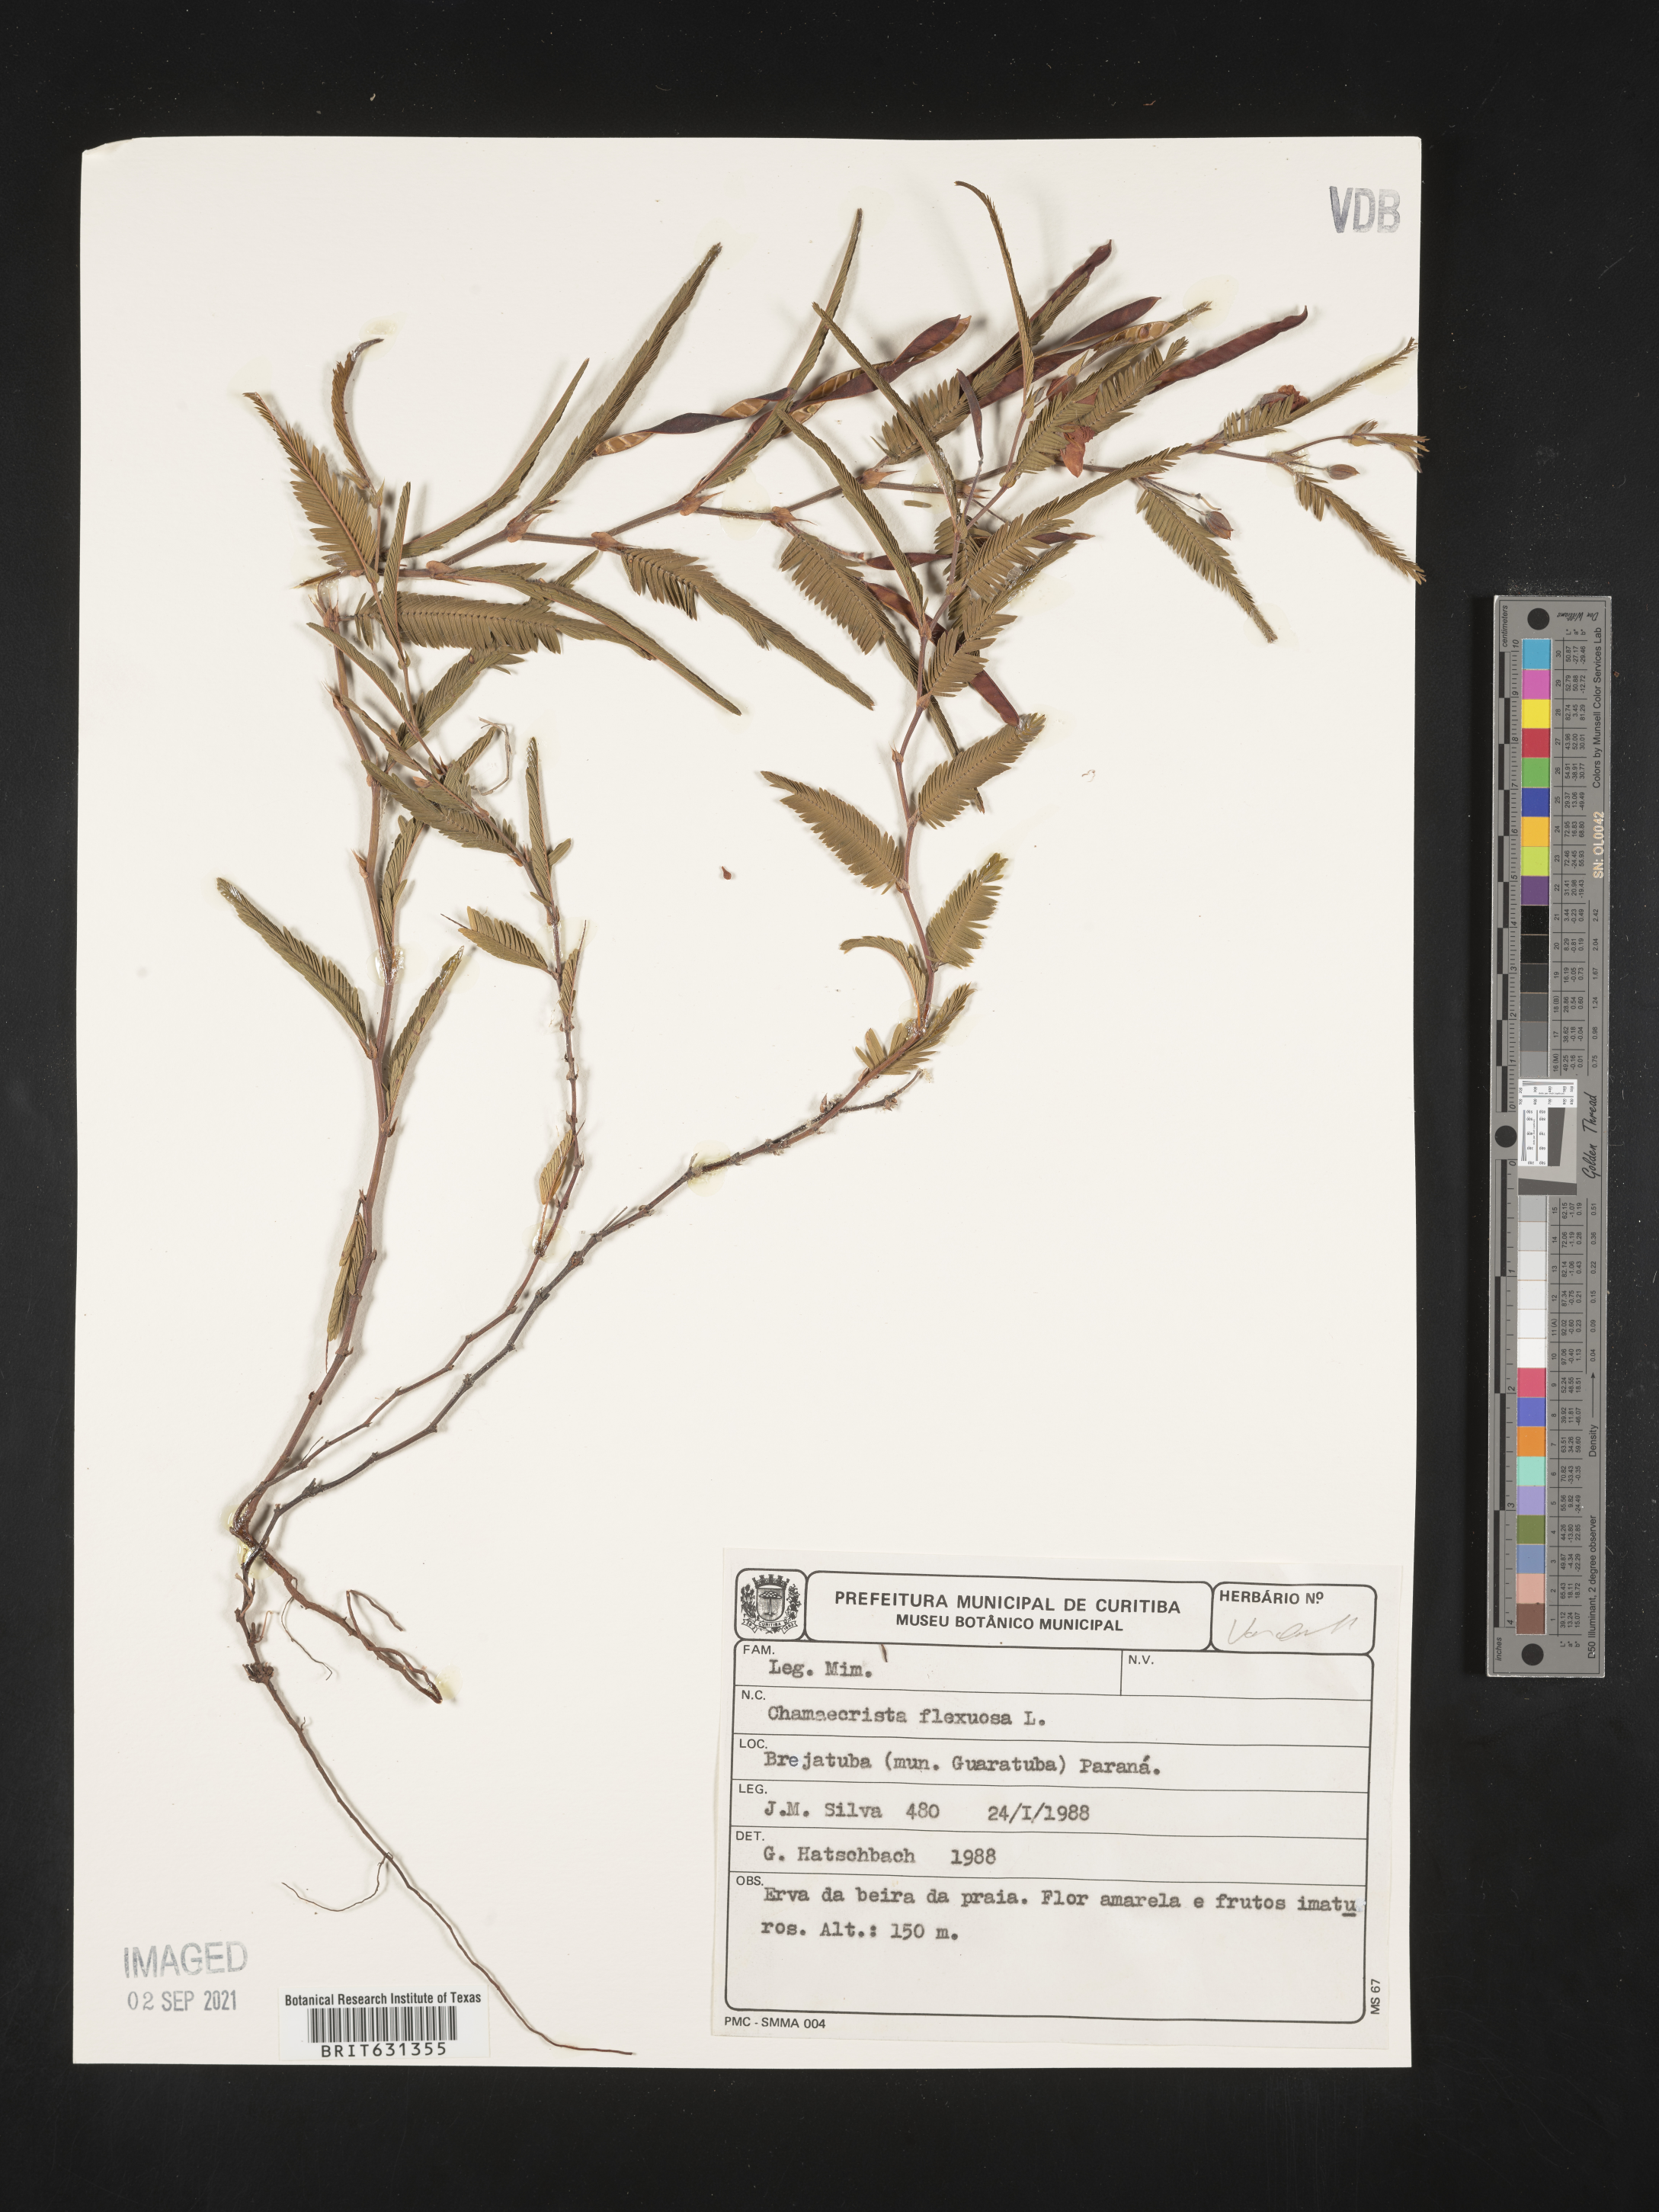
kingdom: Plantae
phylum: Tracheophyta
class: Magnoliopsida
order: Fabales
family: Fabaceae
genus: Chamaecrista
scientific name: Chamaecrista flexuosa
